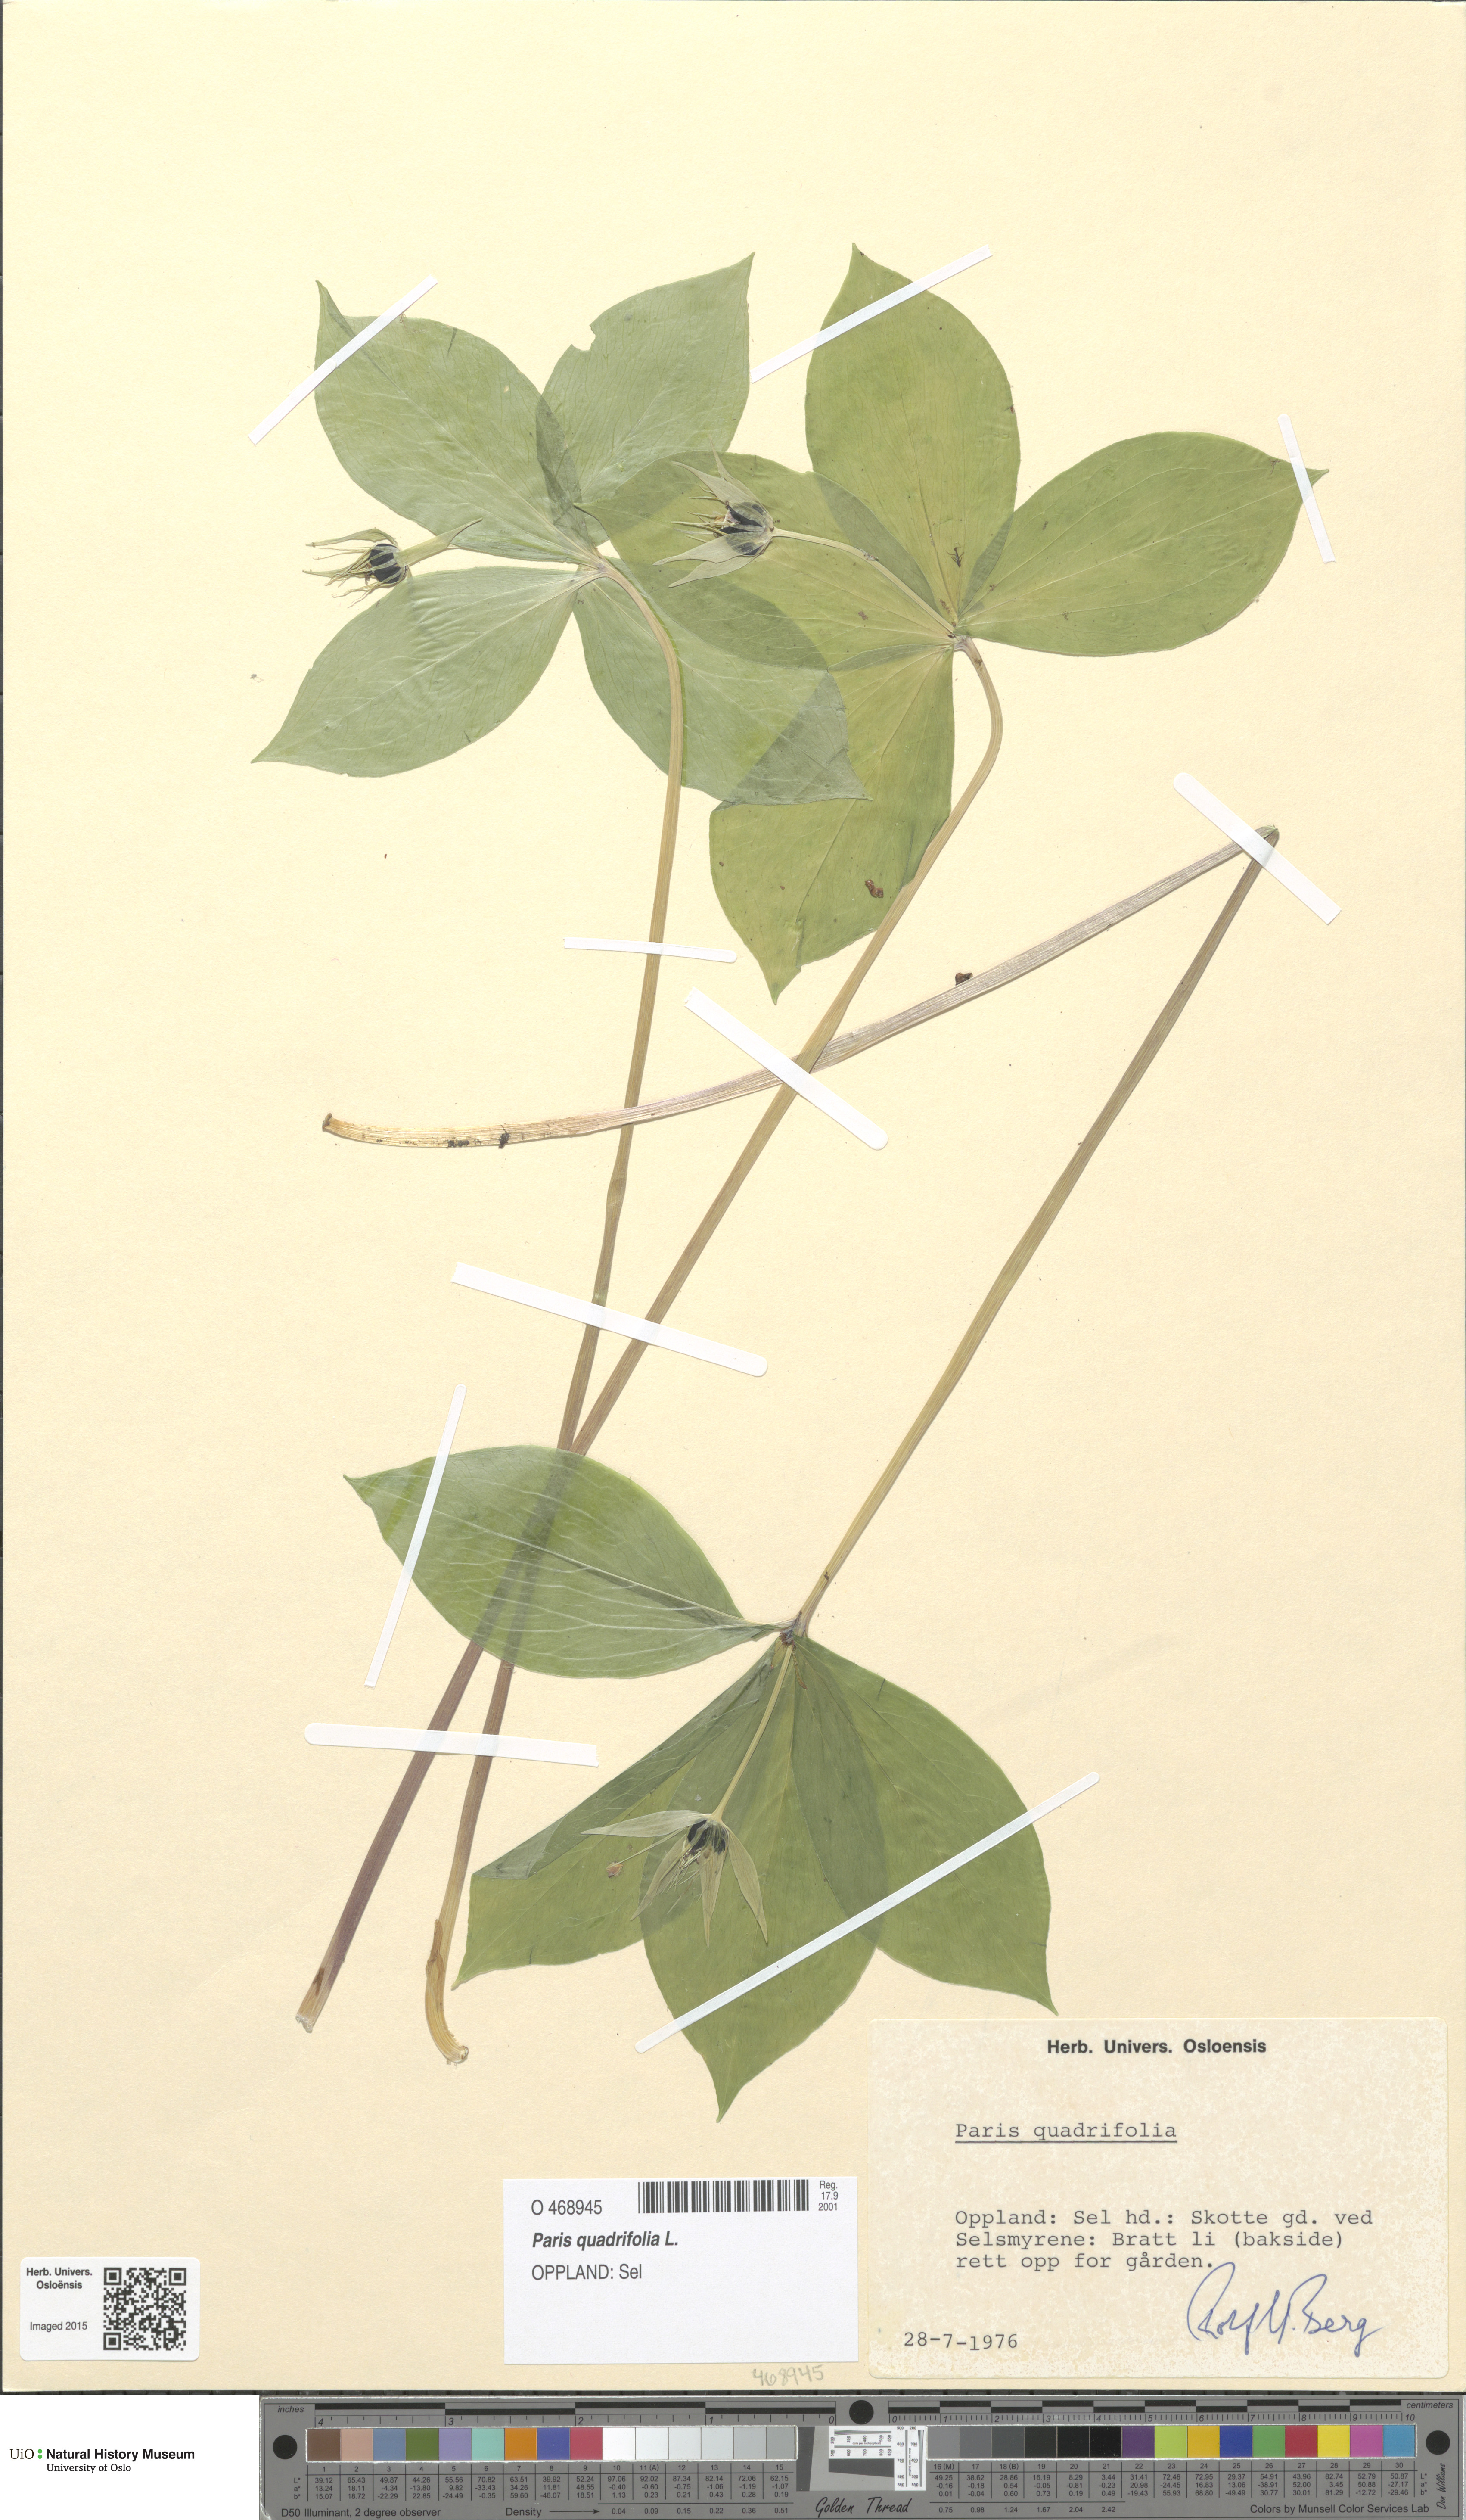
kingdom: Plantae
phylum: Tracheophyta
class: Liliopsida
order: Liliales
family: Melanthiaceae
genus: Paris
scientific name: Paris quadrifolia
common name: Herb-paris
